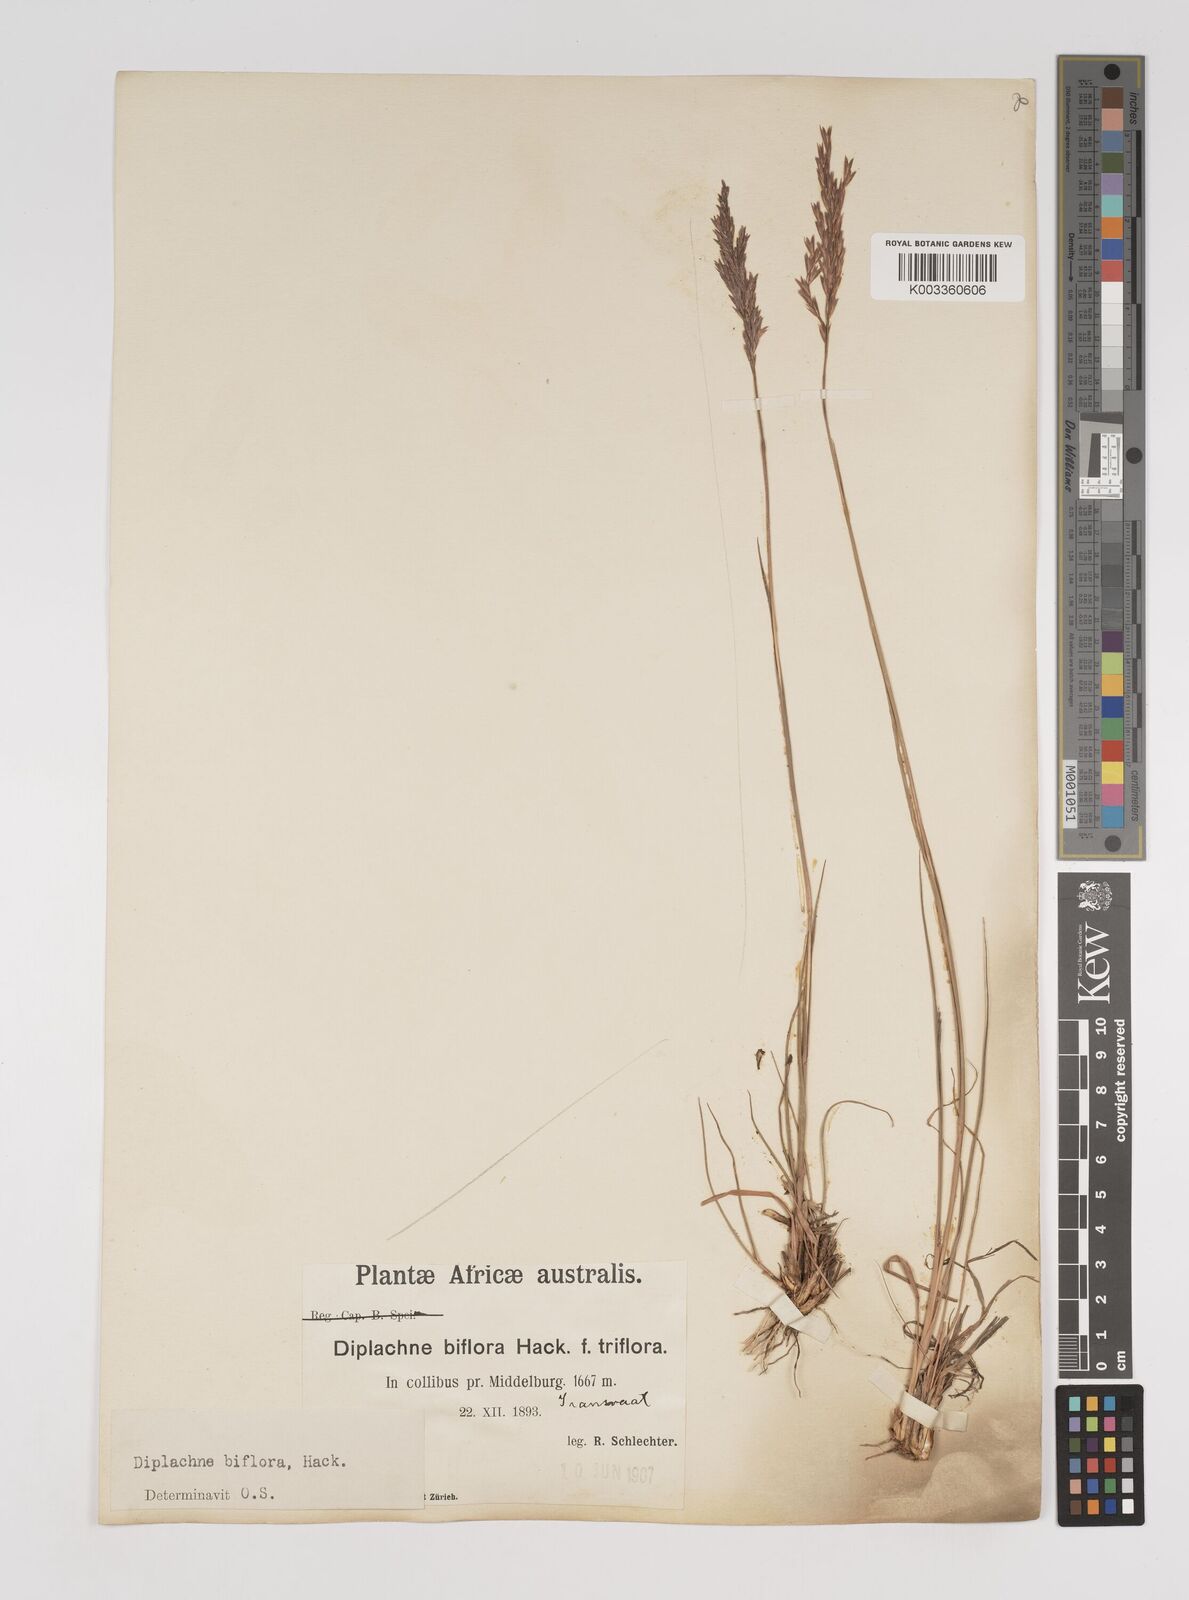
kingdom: Plantae
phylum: Tracheophyta
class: Liliopsida
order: Poales
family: Poaceae
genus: Bewsia
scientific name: Bewsia biflora
